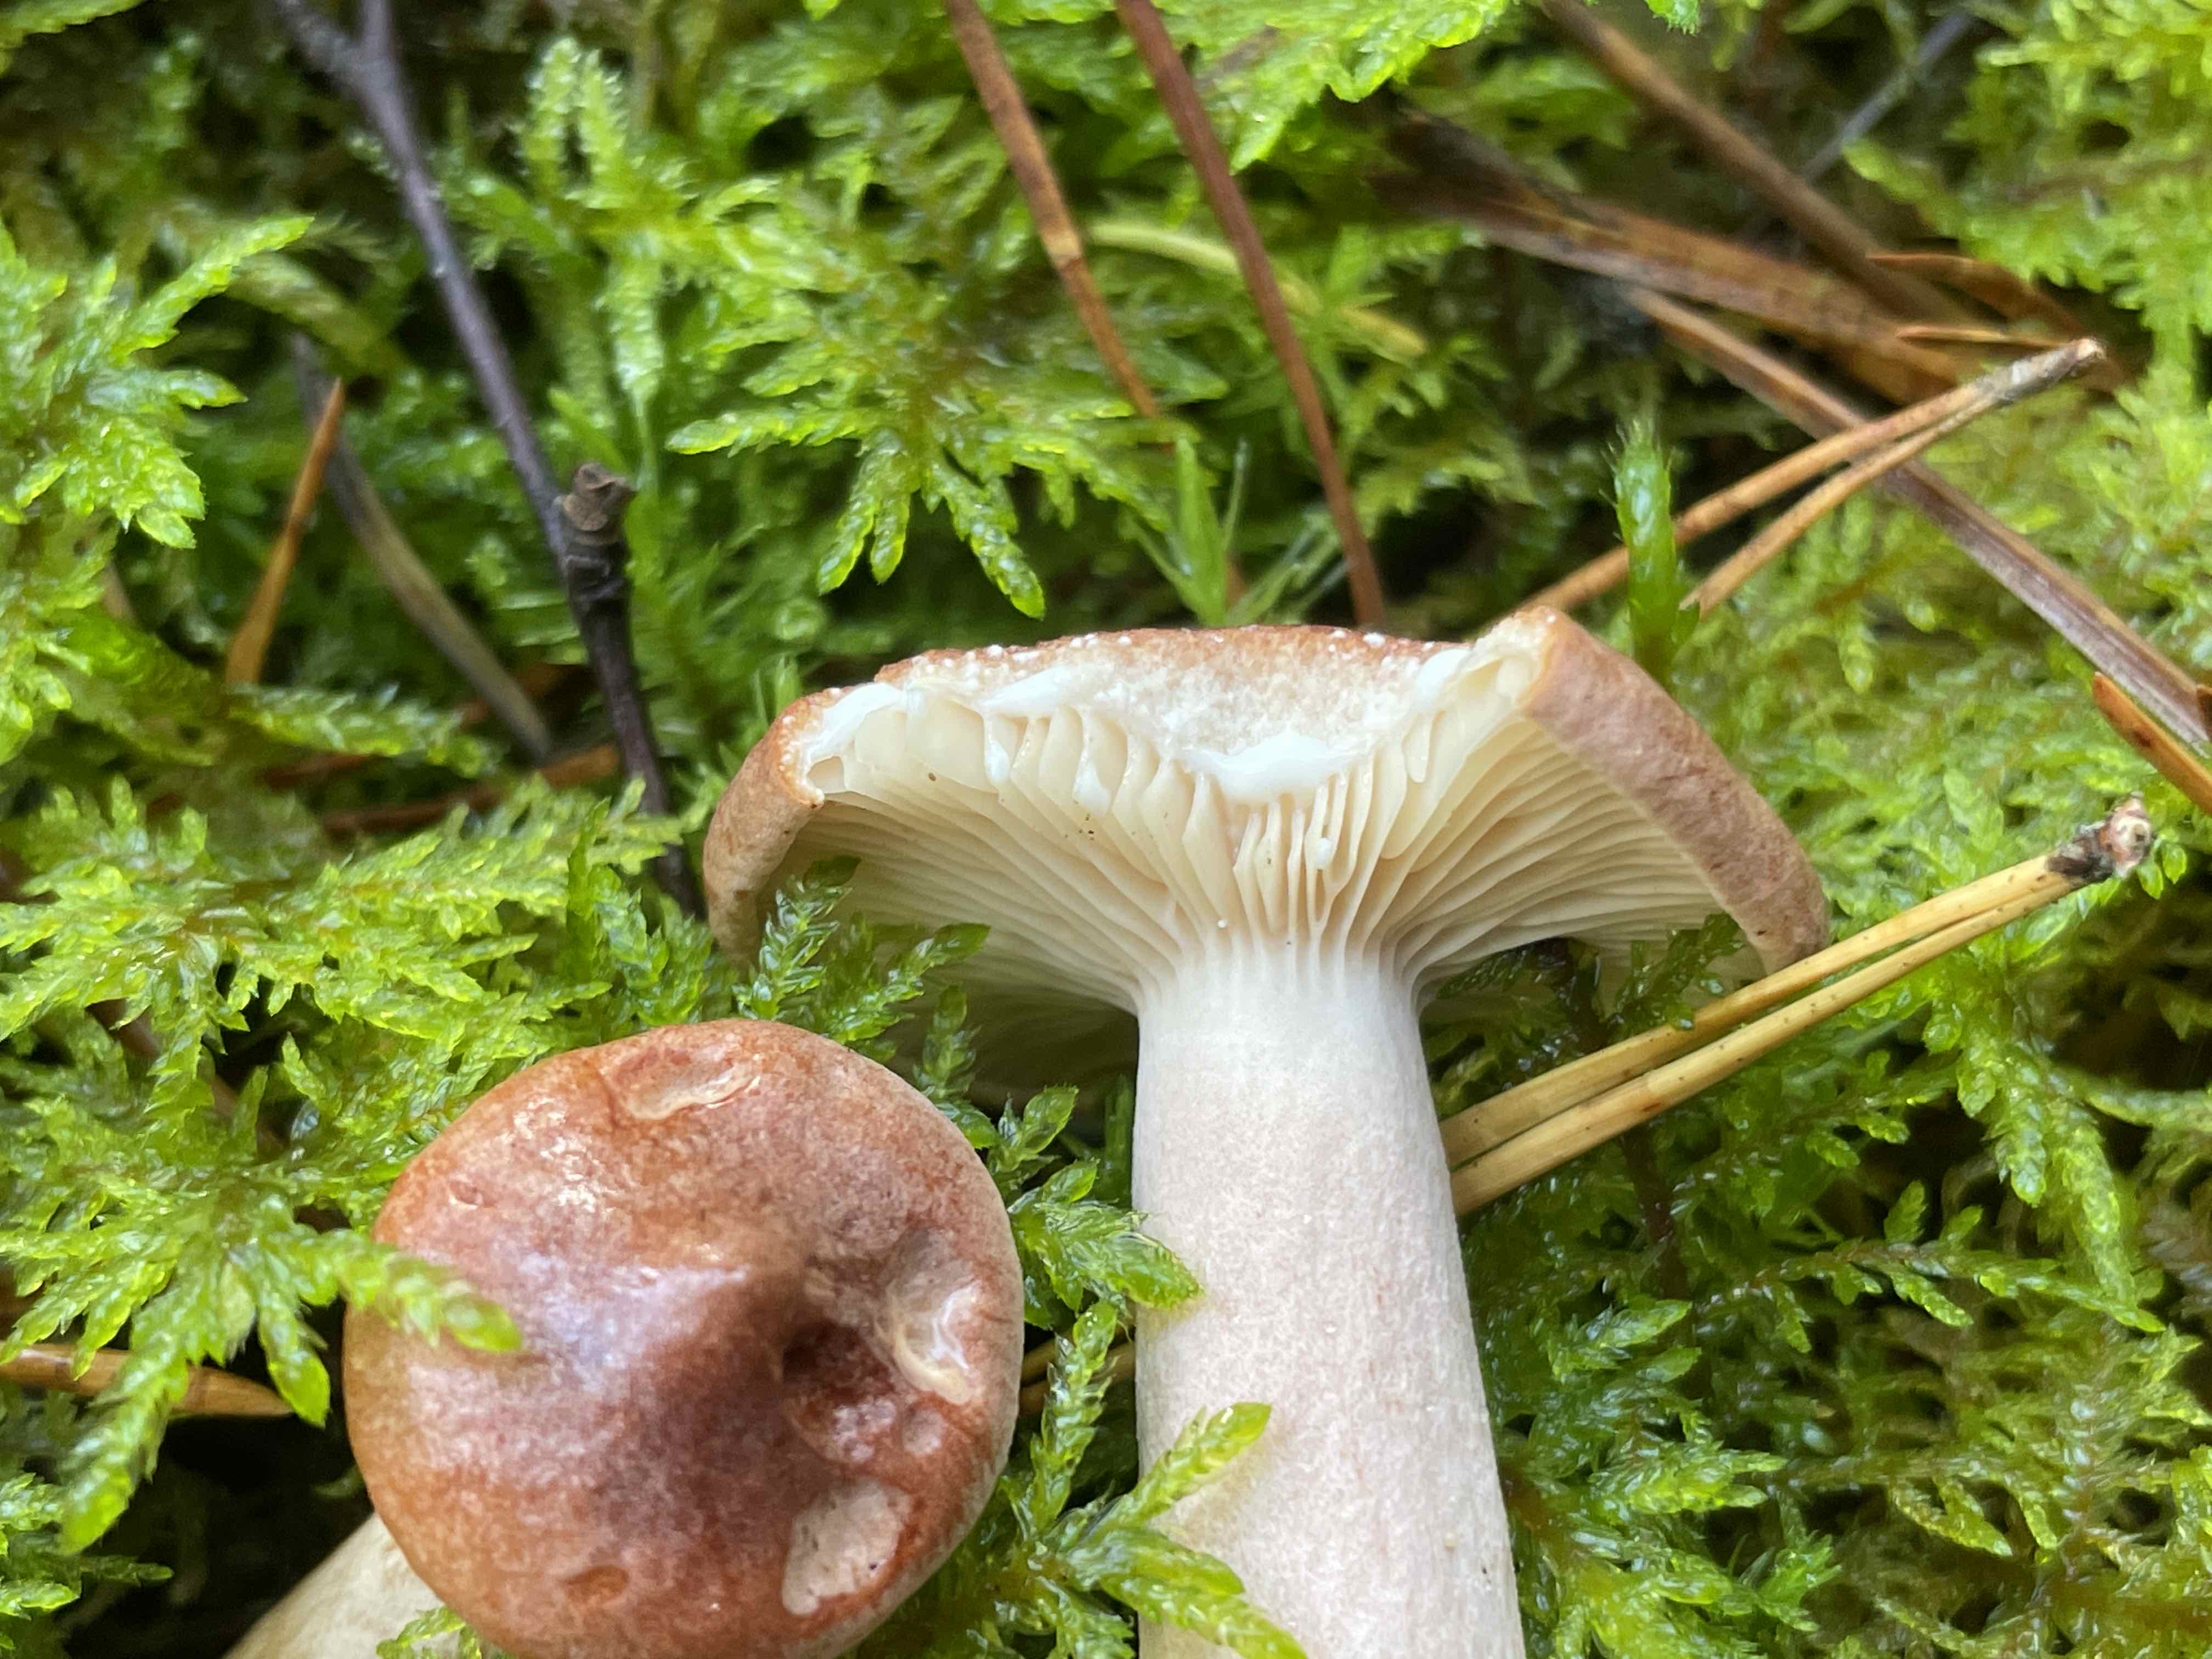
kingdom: Fungi
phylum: Basidiomycota
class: Agaricomycetes
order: Russulales
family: Russulaceae
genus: Lactarius
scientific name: Lactarius rufus
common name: rødbrun mælkehat
